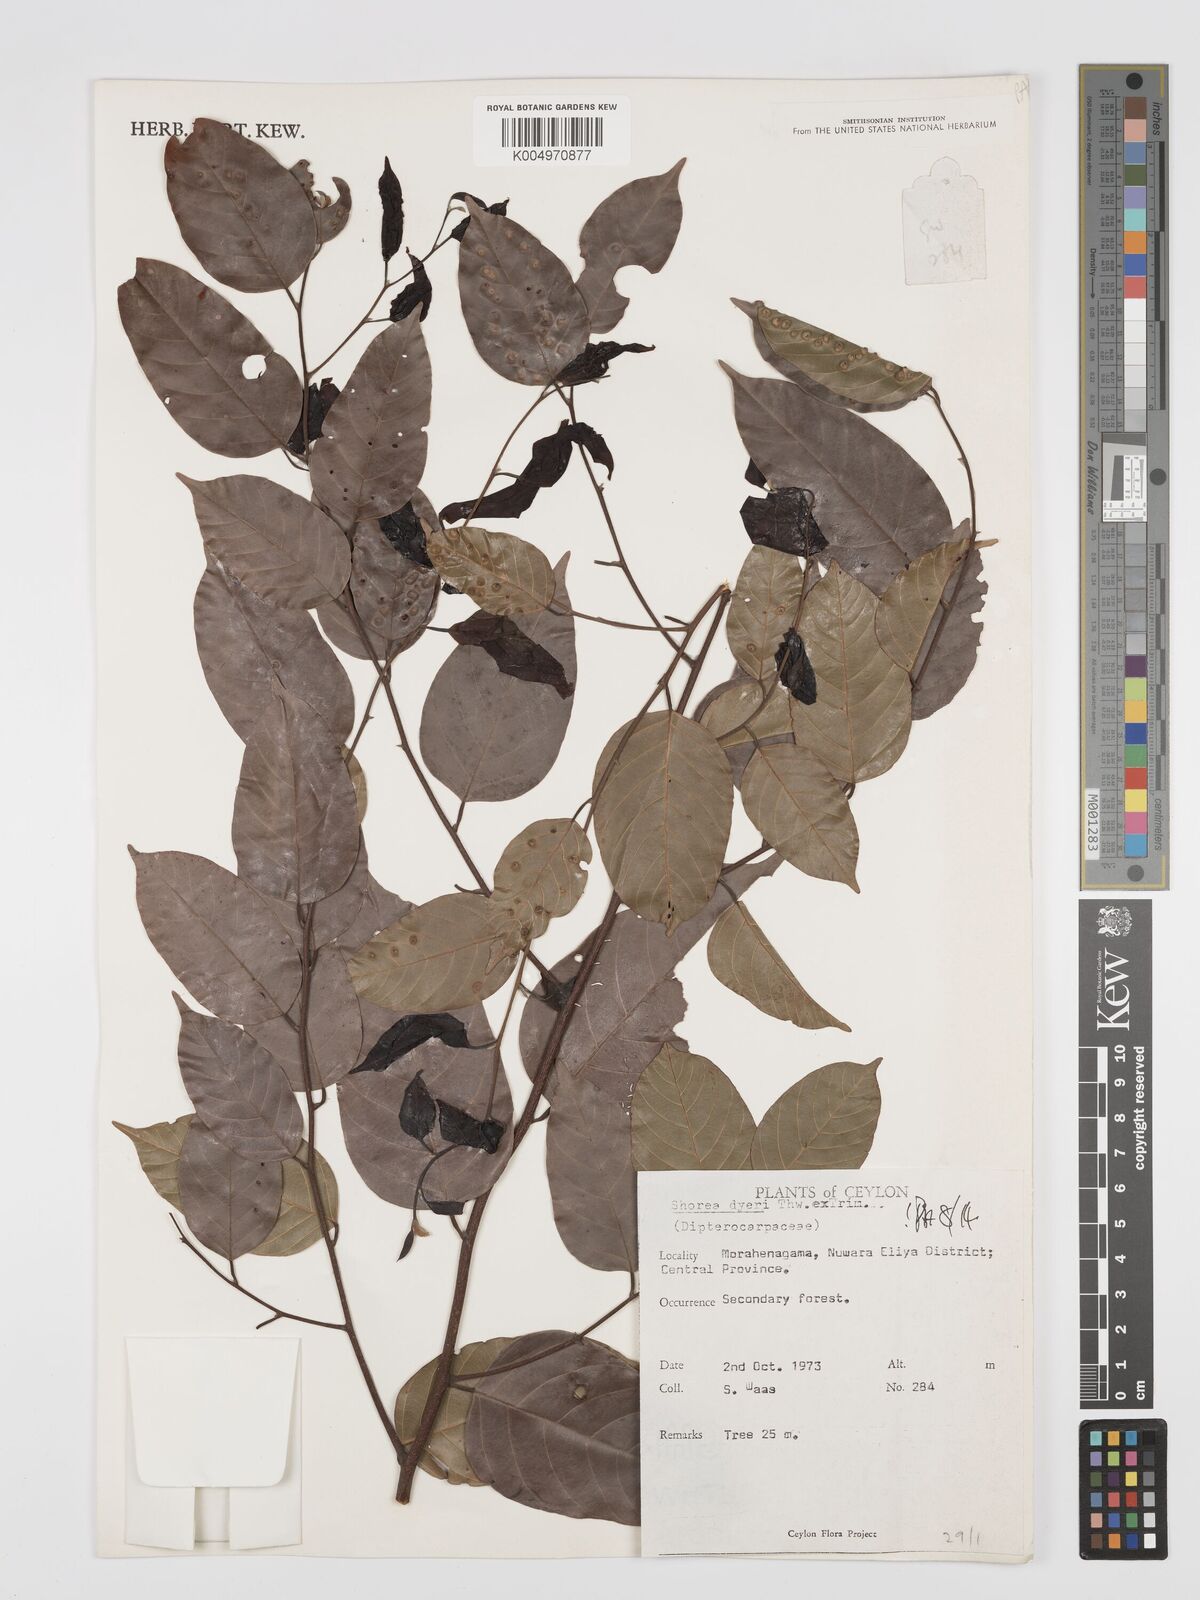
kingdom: Plantae
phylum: Tracheophyta
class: Magnoliopsida
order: Malvales
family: Dipterocarpaceae
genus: Shorea
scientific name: Shorea dyeri
